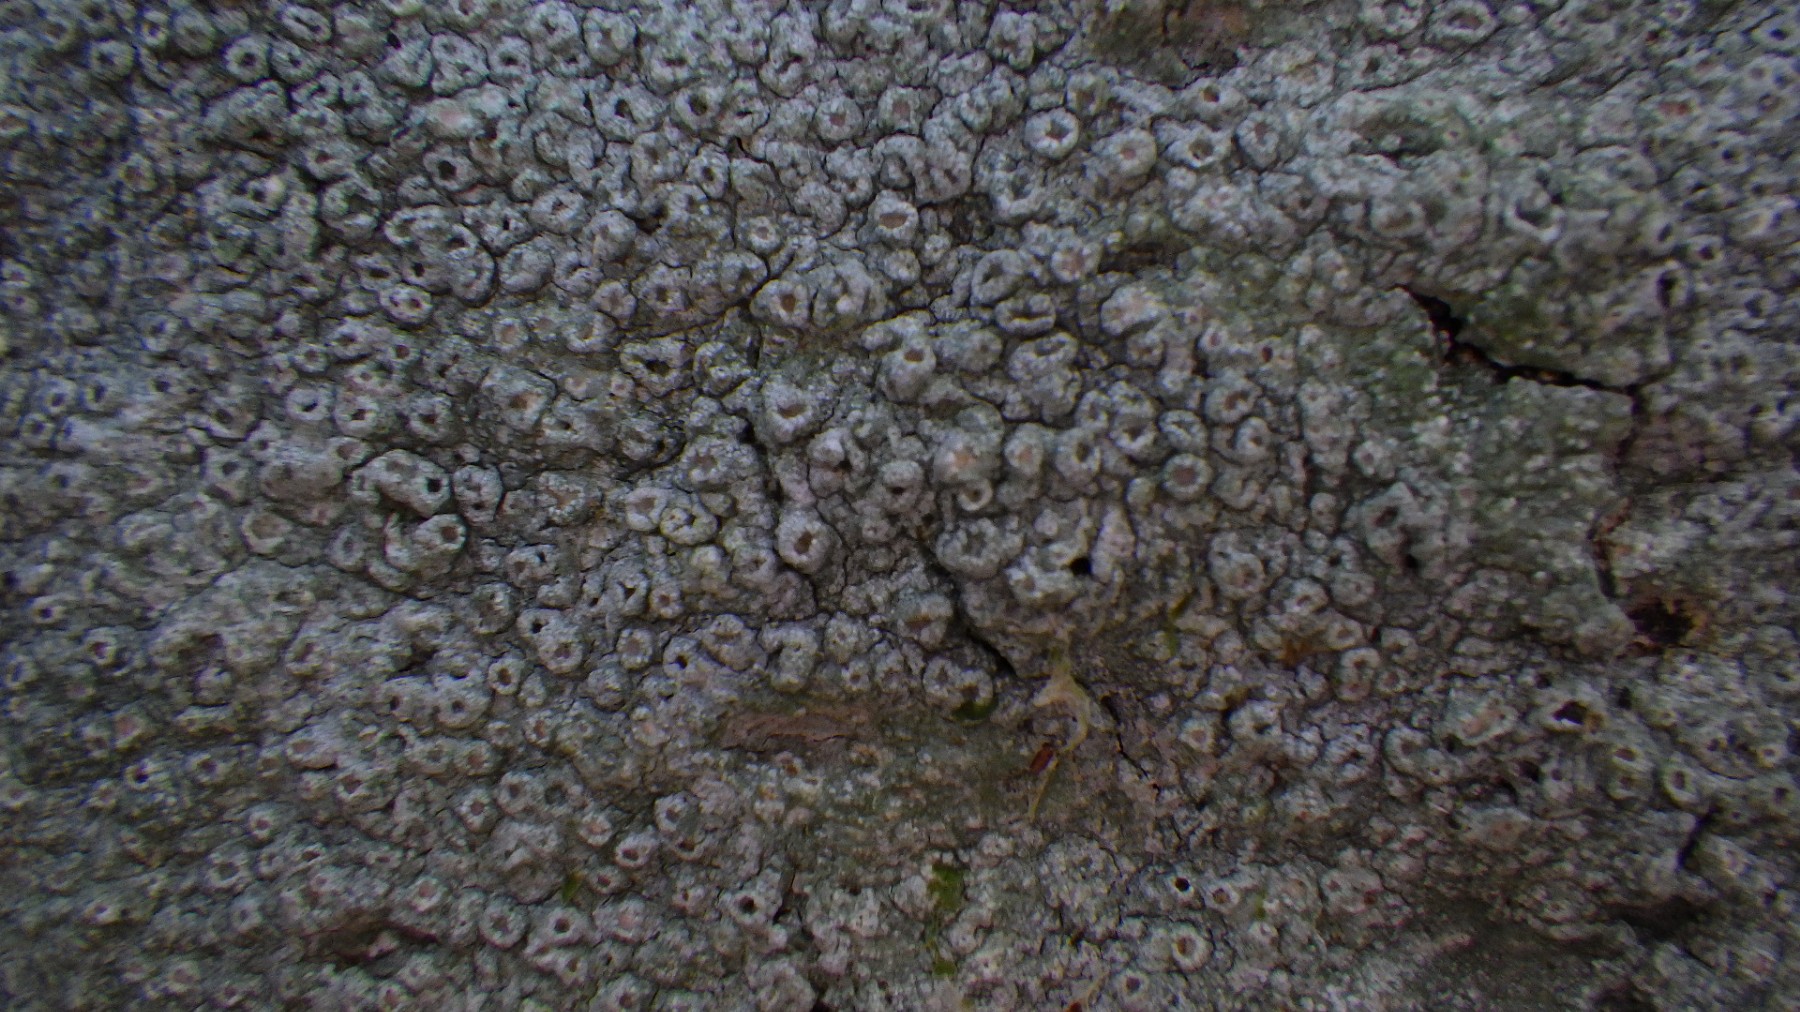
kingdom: Fungi
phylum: Ascomycota
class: Lecanoromycetes
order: Pertusariales
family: Pertusariaceae
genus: Pertusaria
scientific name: Pertusaria hymenea
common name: åben prikvortelav
